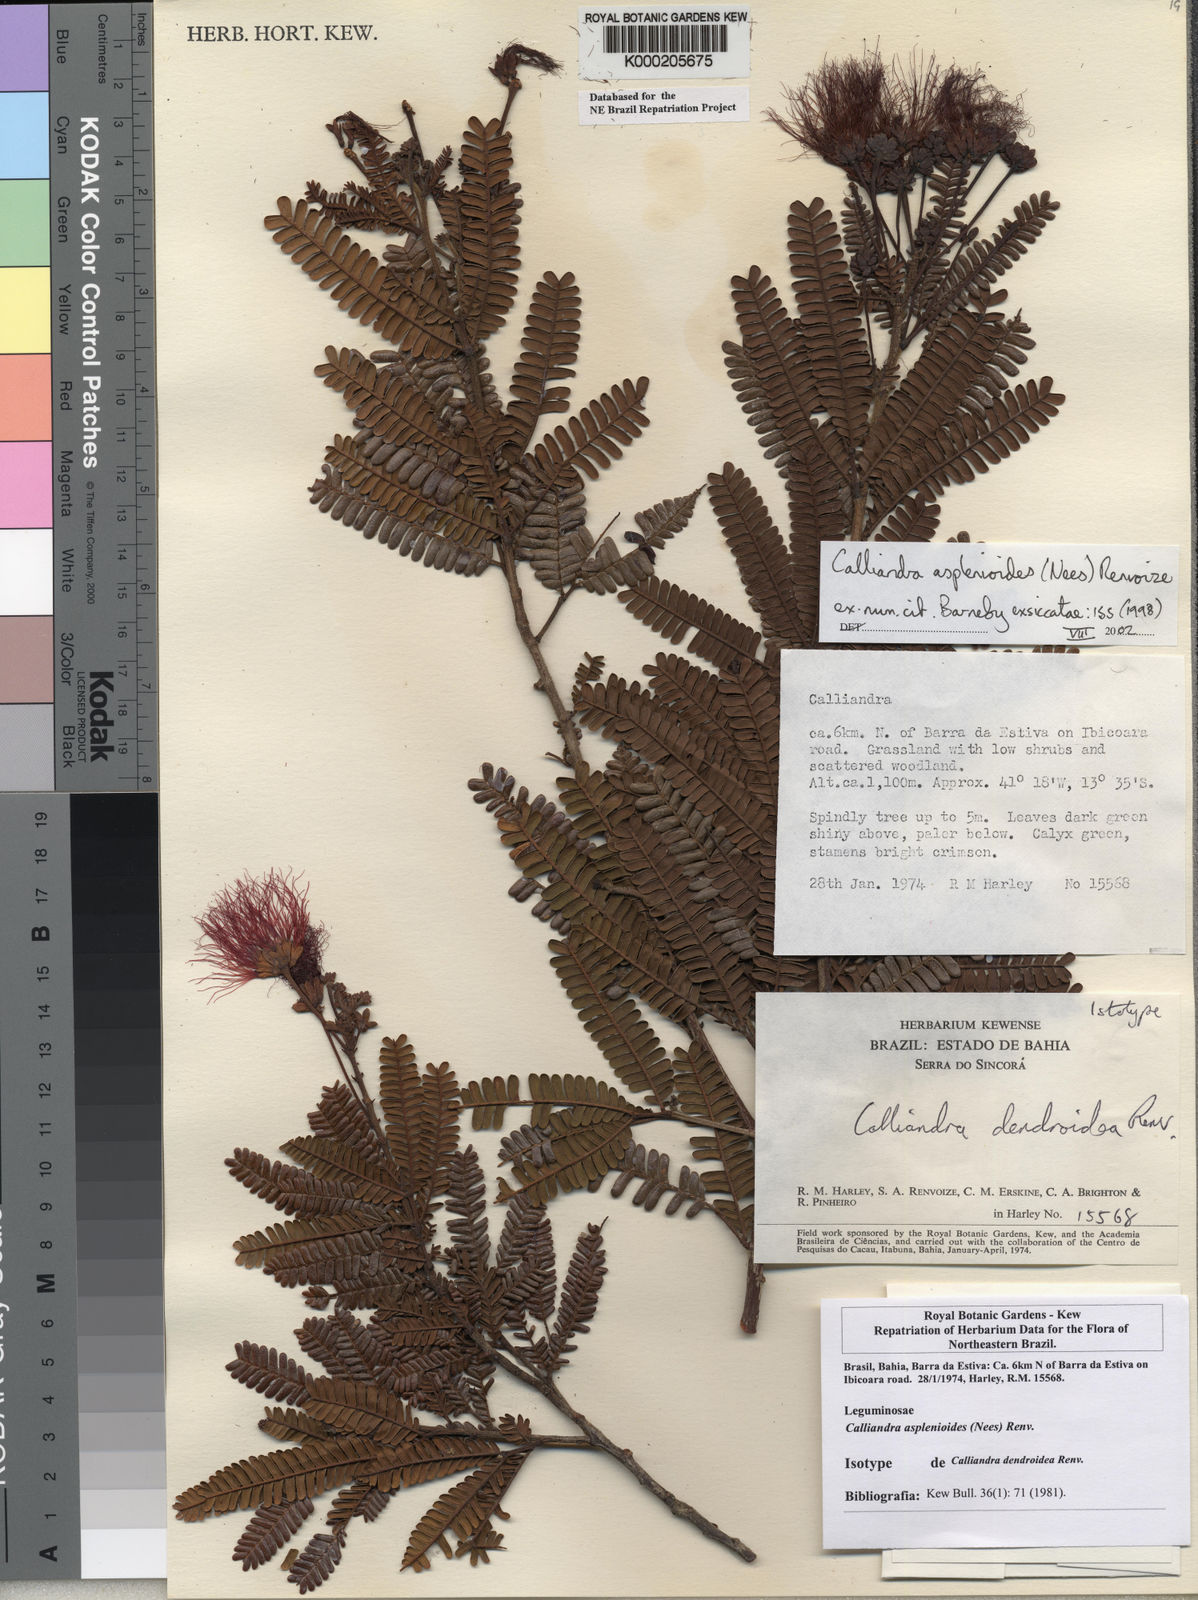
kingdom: Plantae
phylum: Tracheophyta
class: Magnoliopsida
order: Fabales
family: Fabaceae
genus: Calliandra
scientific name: Calliandra
